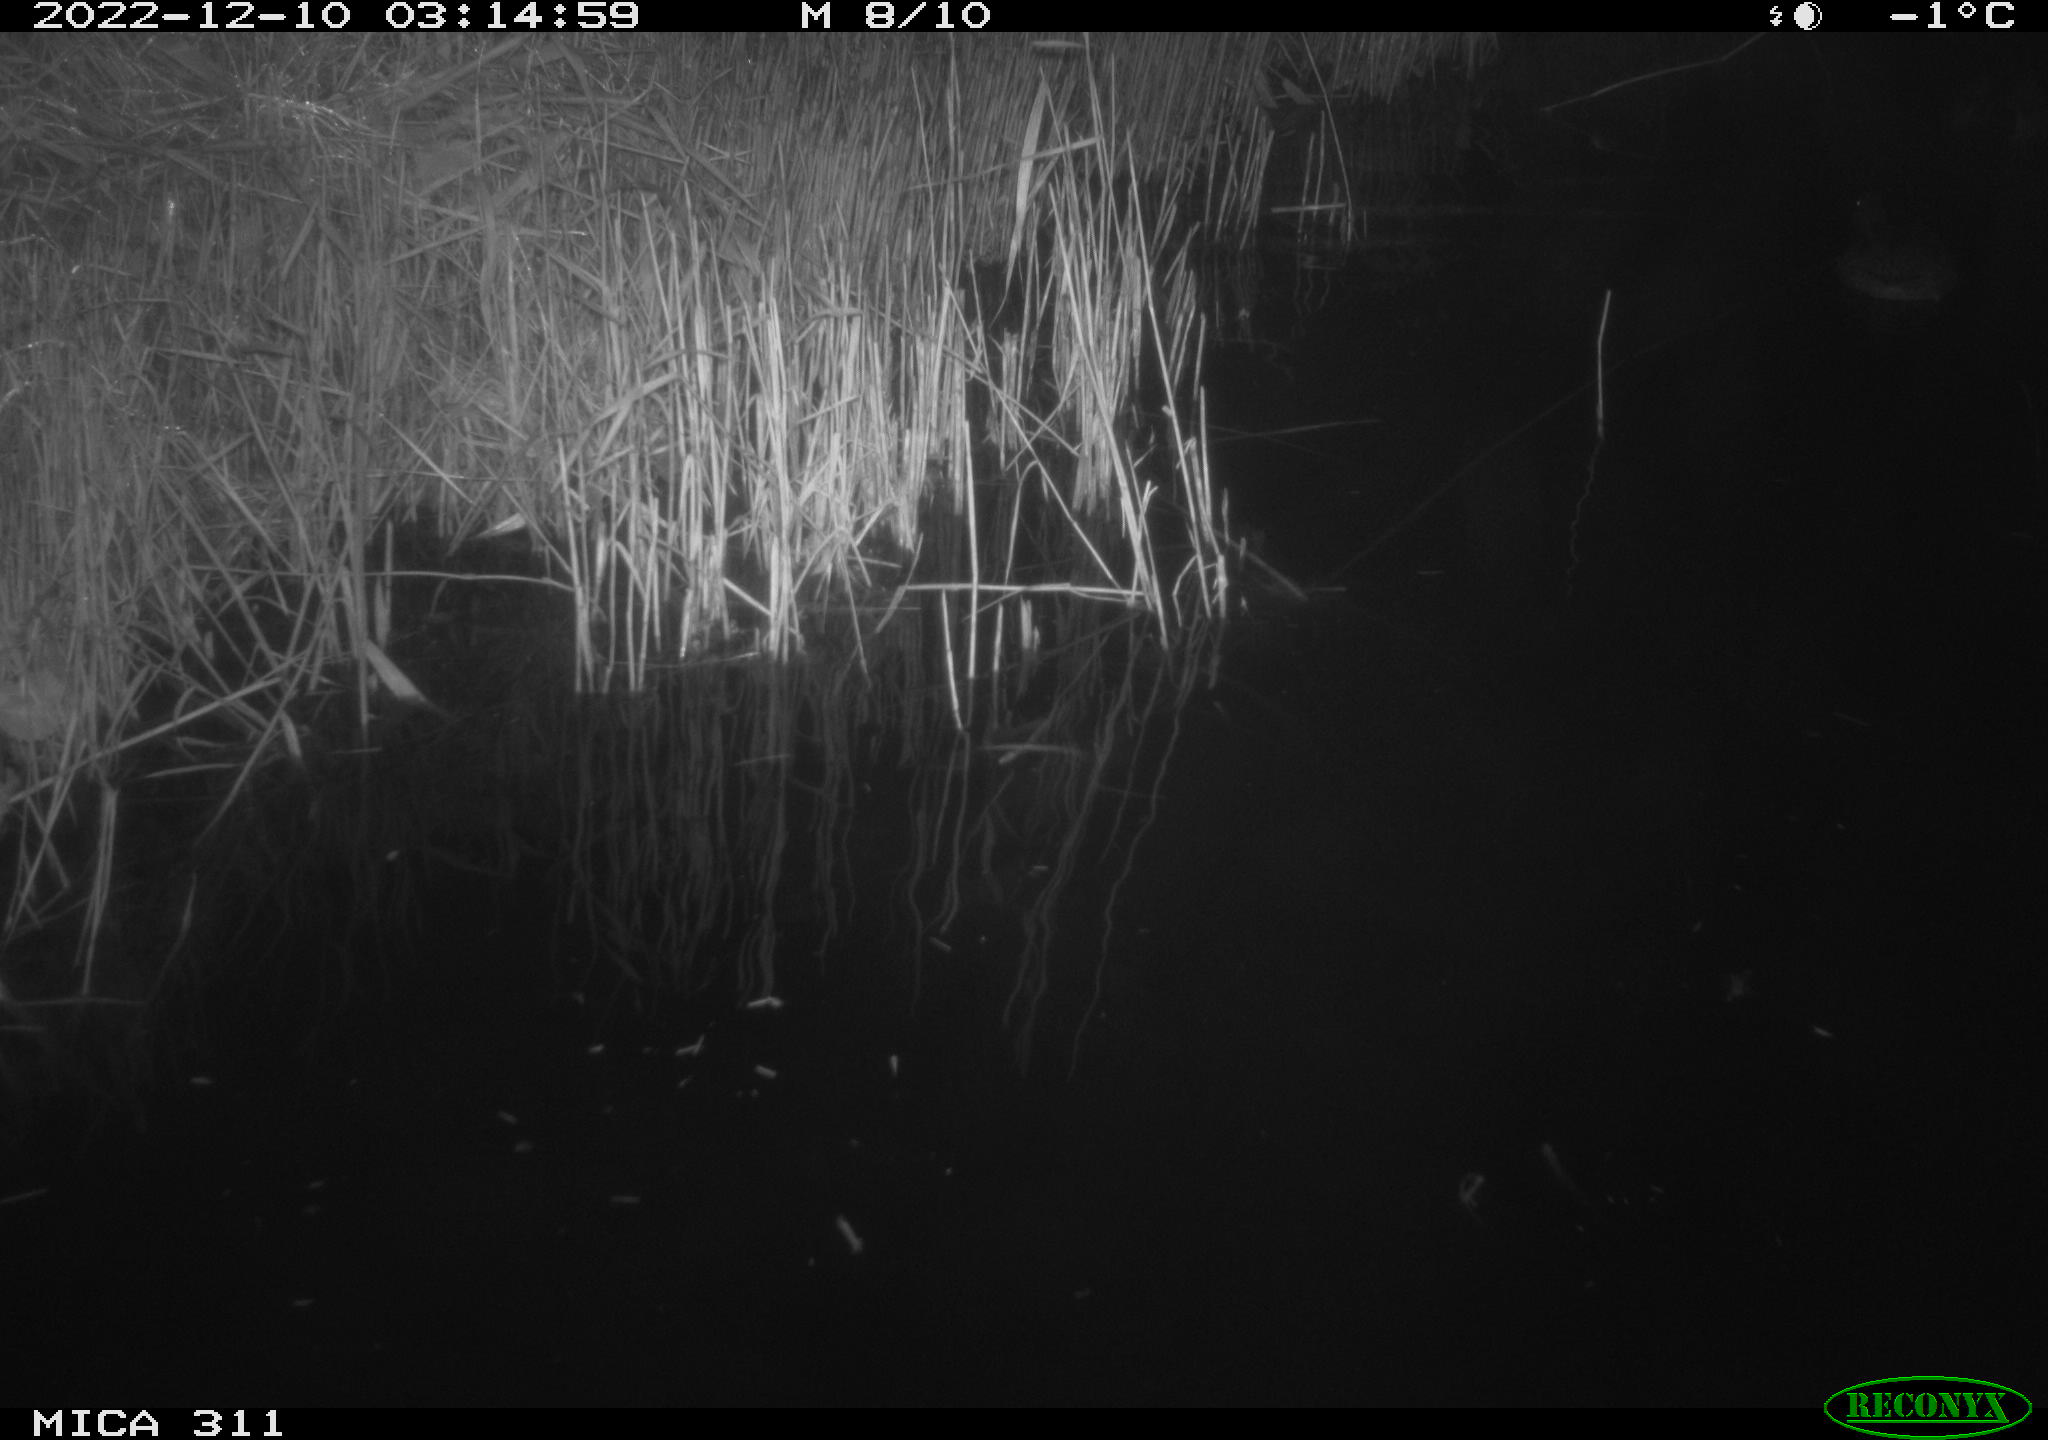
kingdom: Animalia
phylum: Chordata
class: Aves
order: Anseriformes
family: Anatidae
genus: Anas
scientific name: Anas
